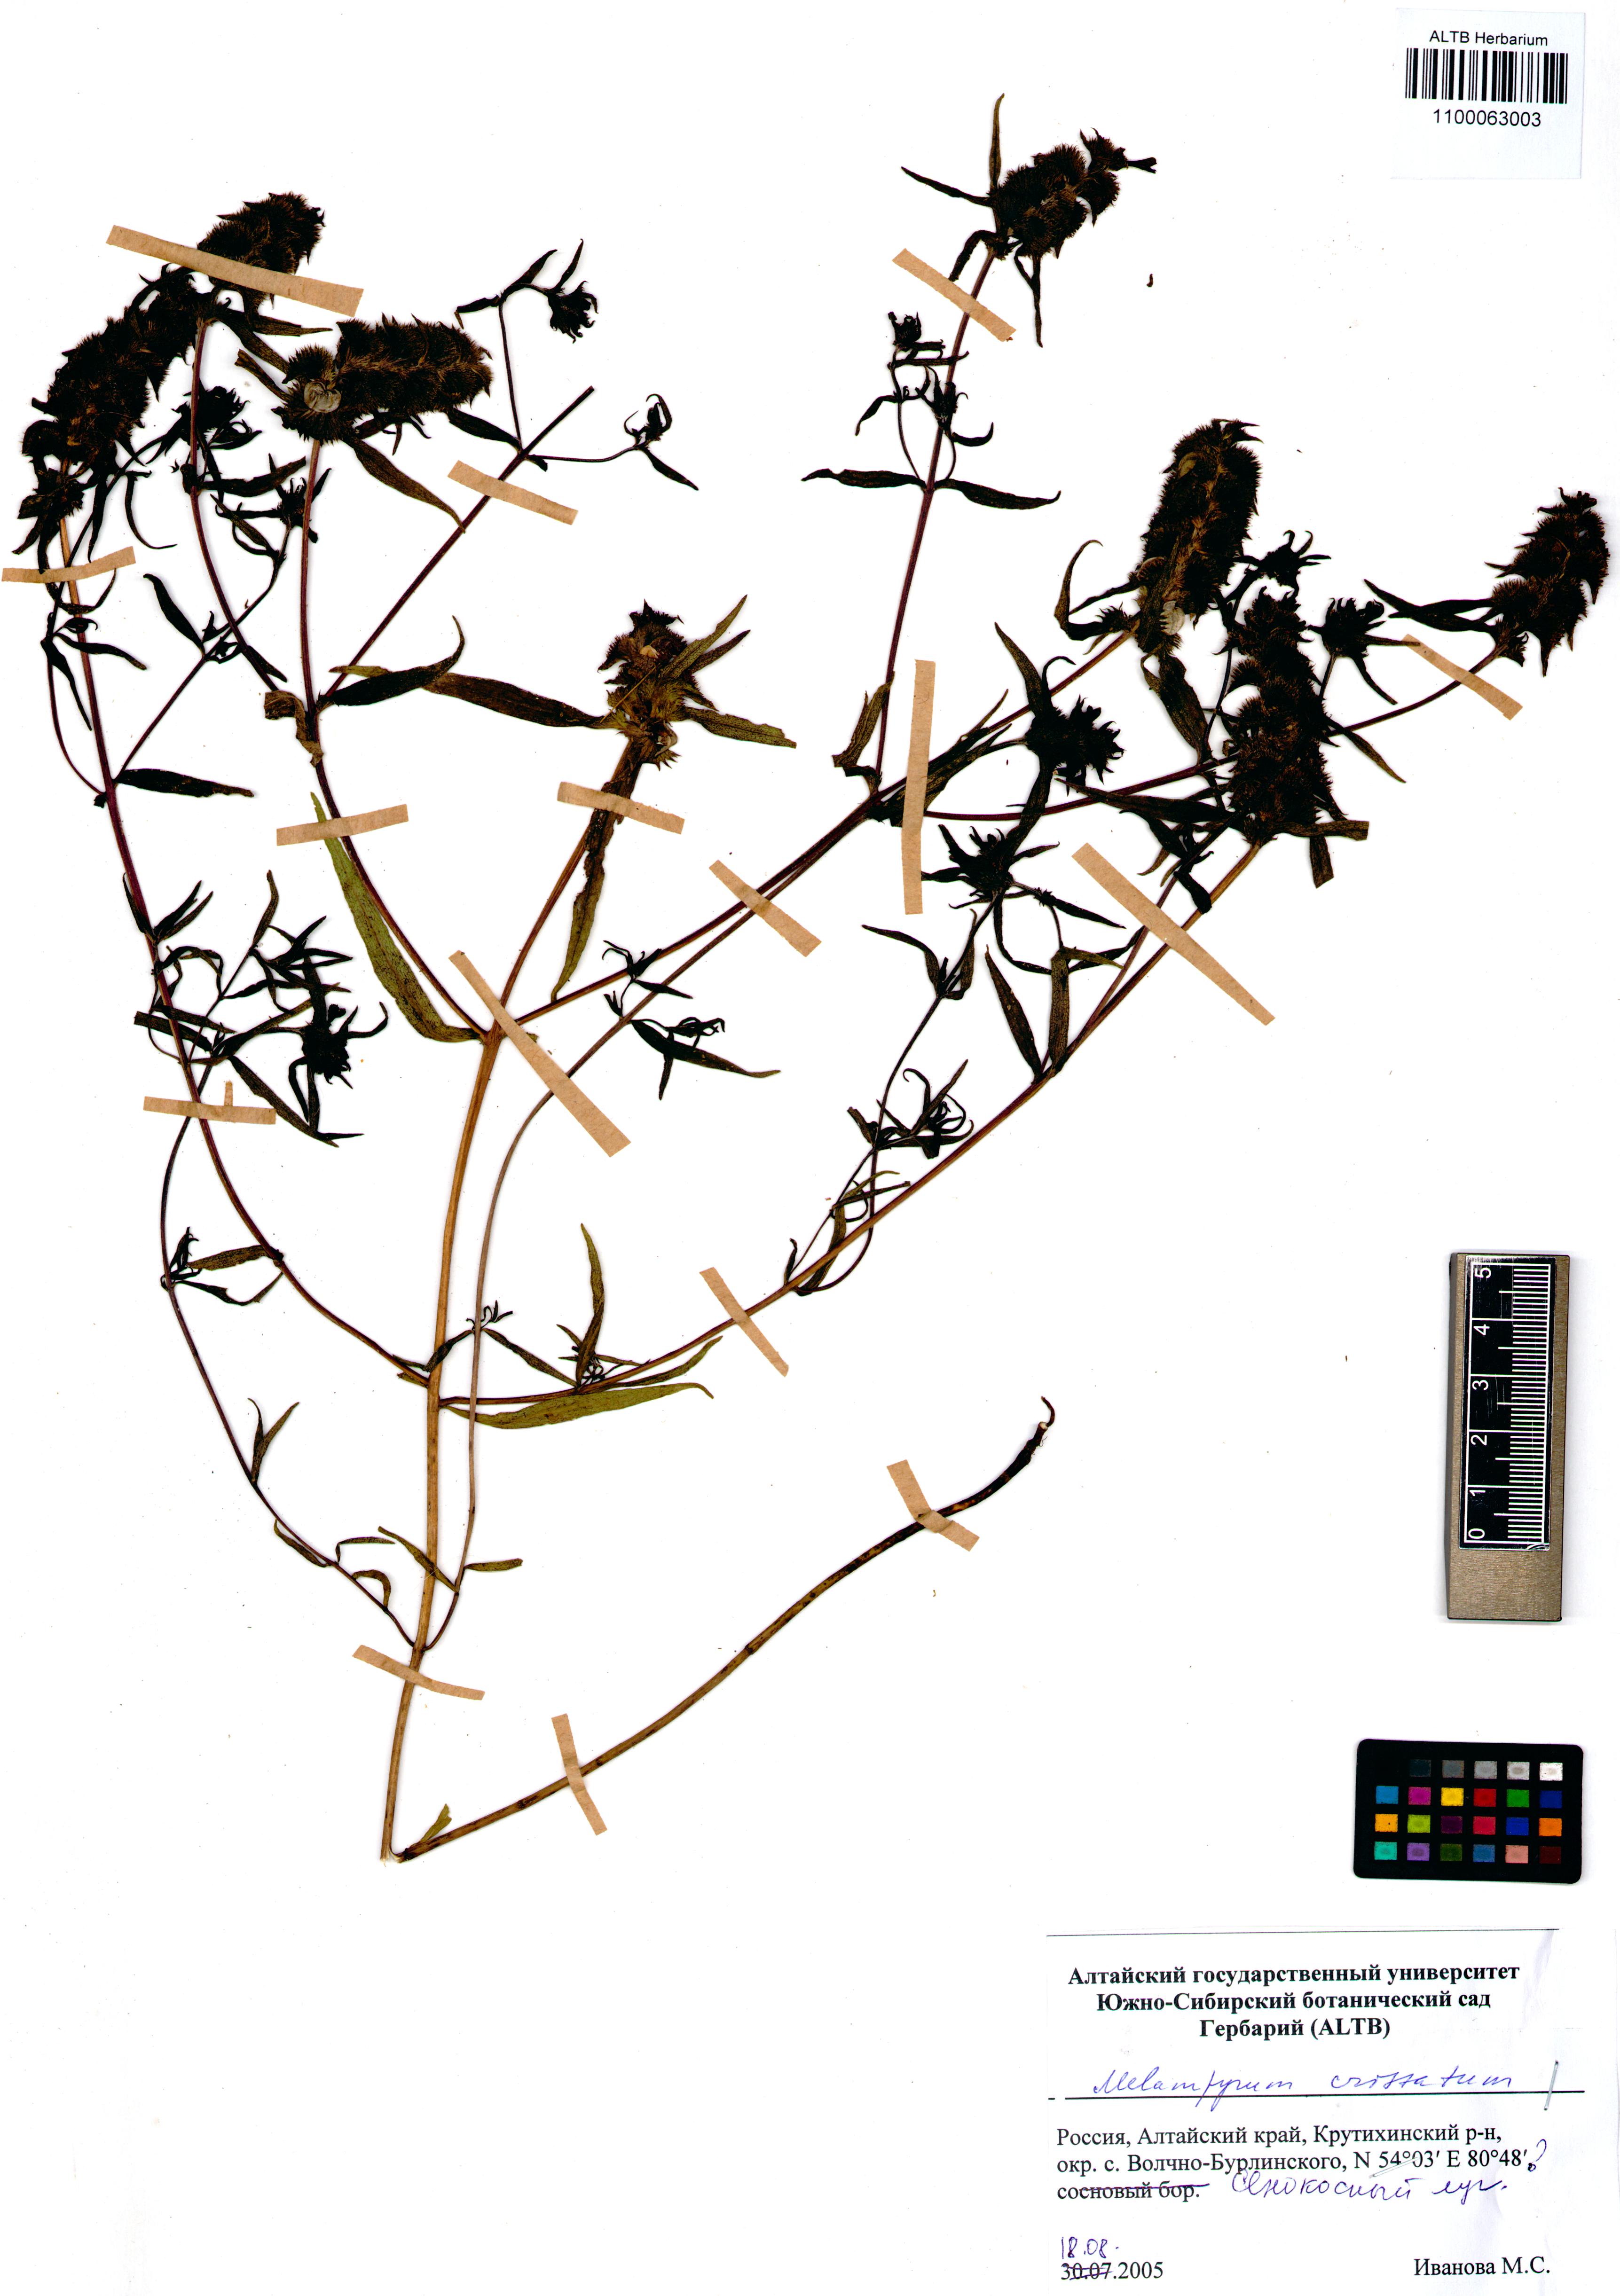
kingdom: Plantae
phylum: Tracheophyta
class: Magnoliopsida
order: Lamiales
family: Orobanchaceae
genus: Melampyrum
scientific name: Melampyrum cristatum
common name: Crested cow-wheat
